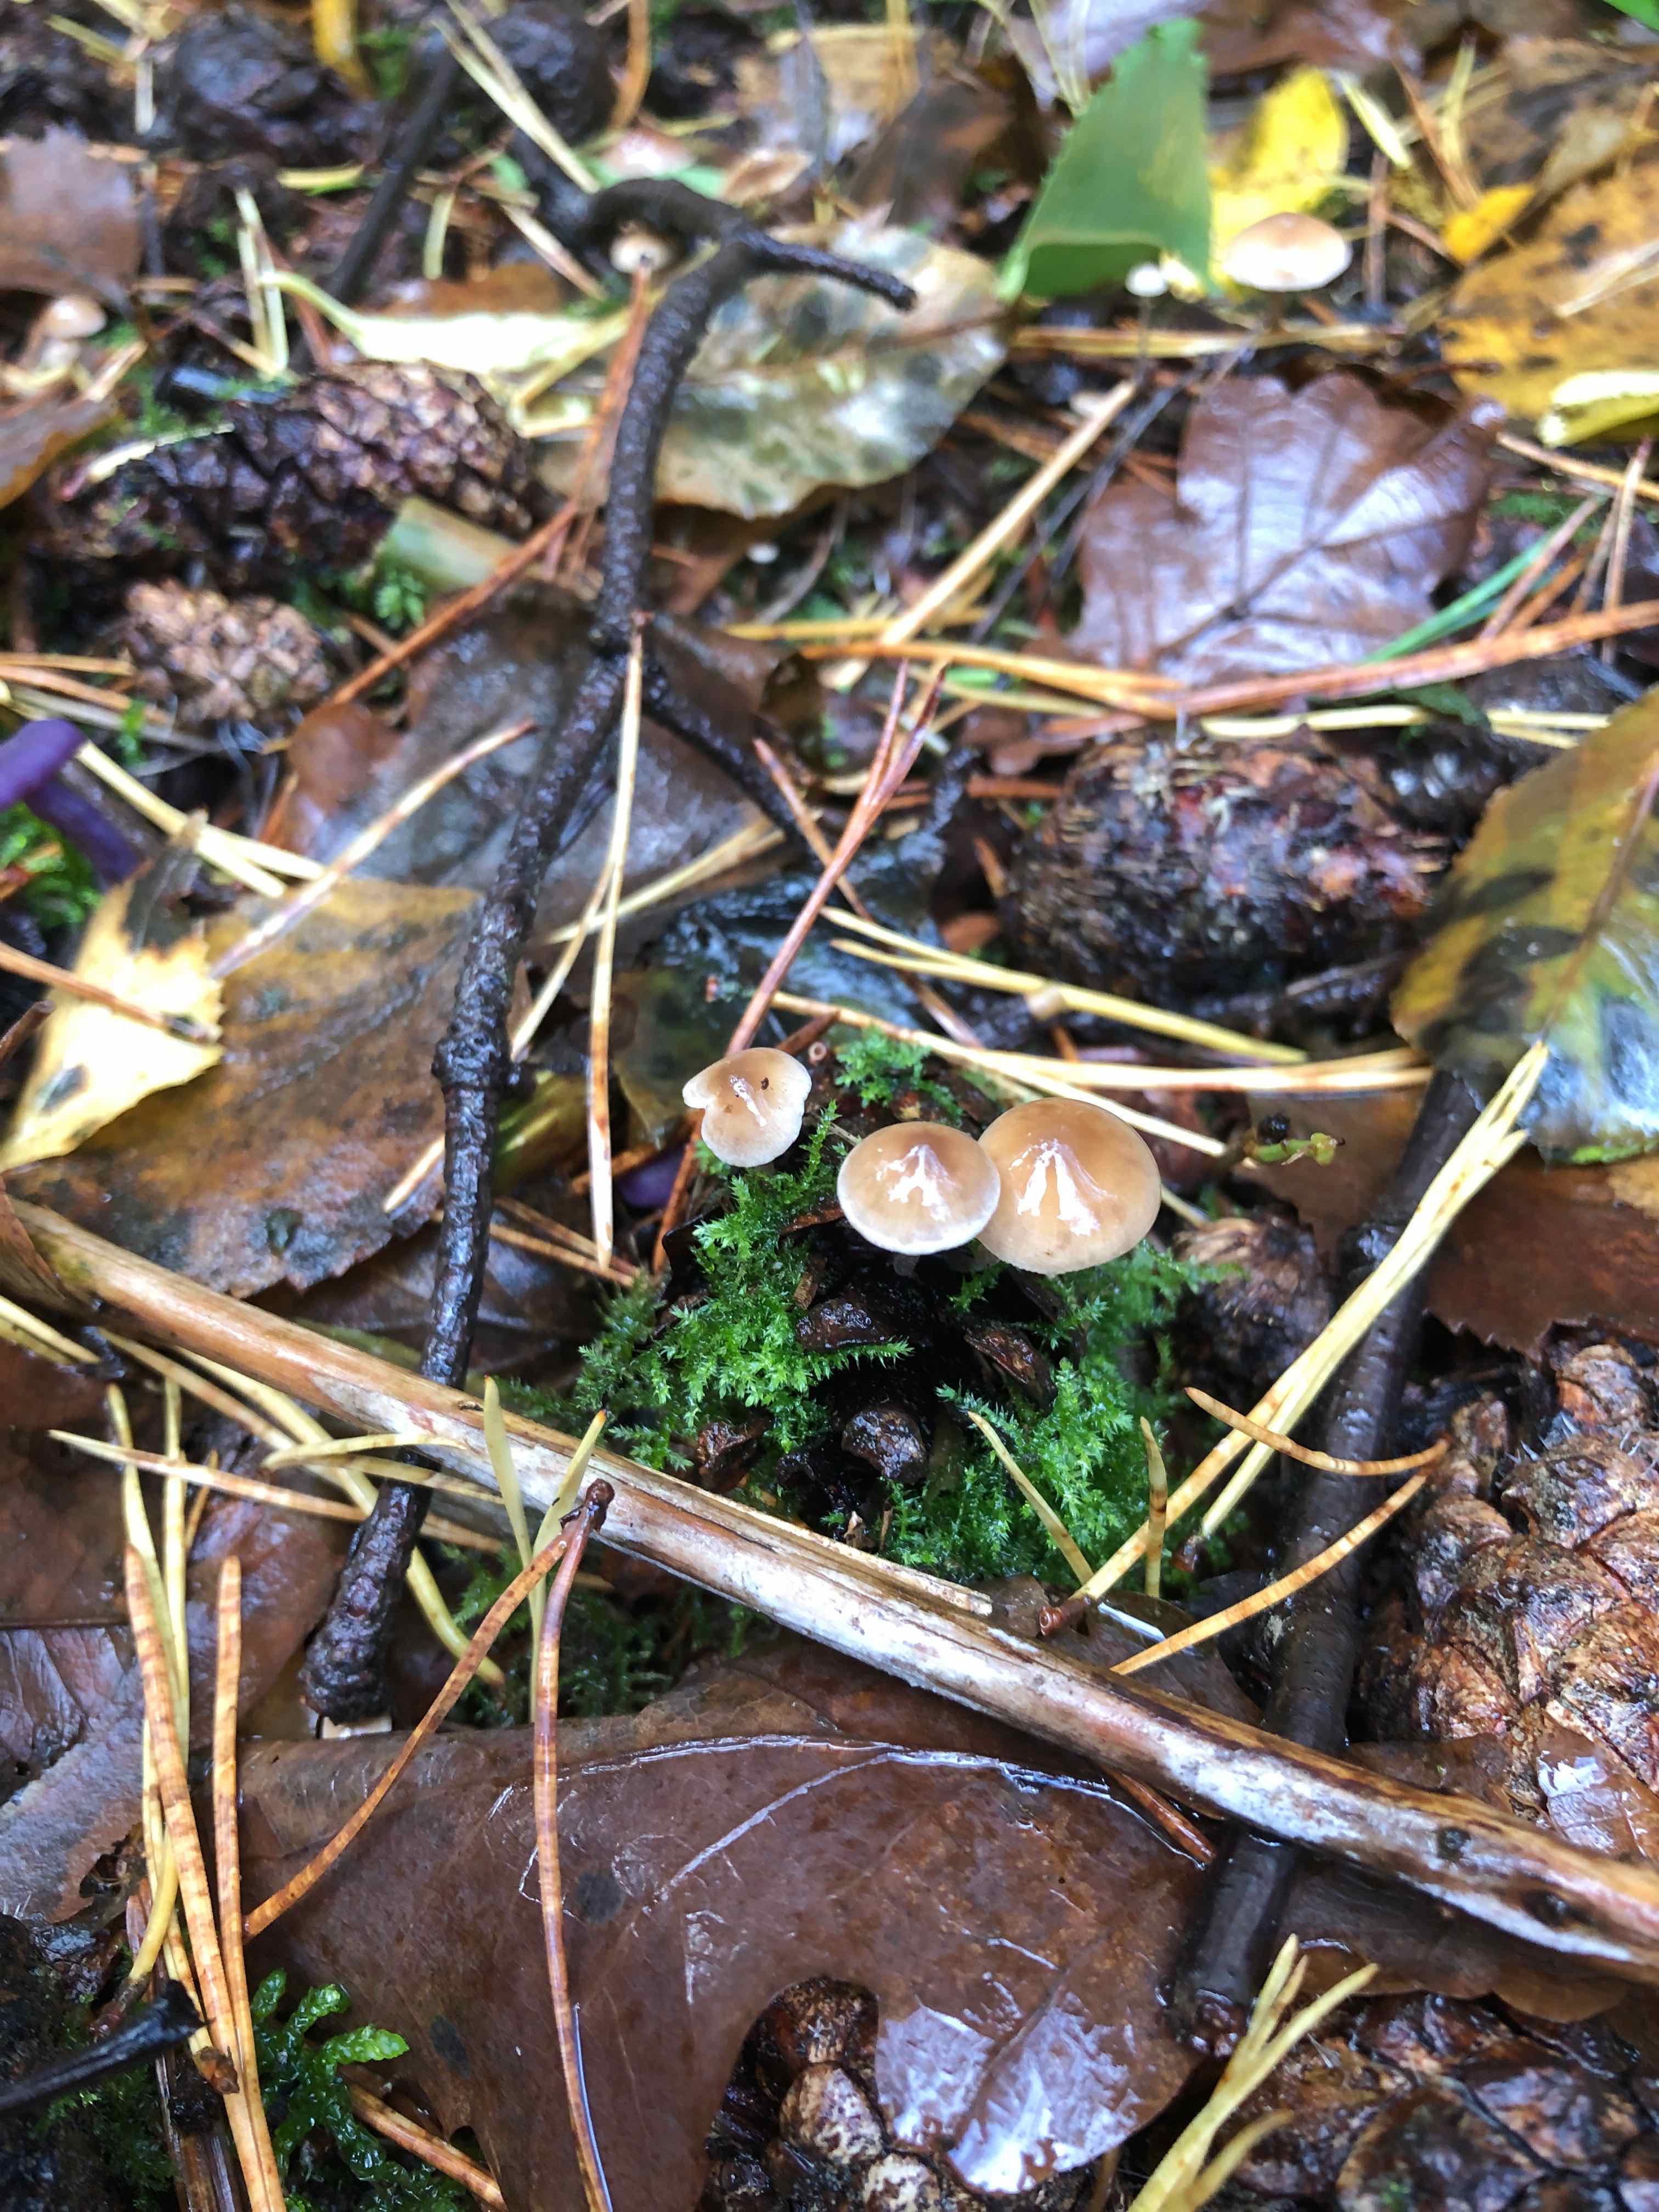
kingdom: Fungi
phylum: Basidiomycota
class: Agaricomycetes
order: Agaricales
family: Marasmiaceae
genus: Baeospora
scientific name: Baeospora myosura
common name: koglebruskhat
